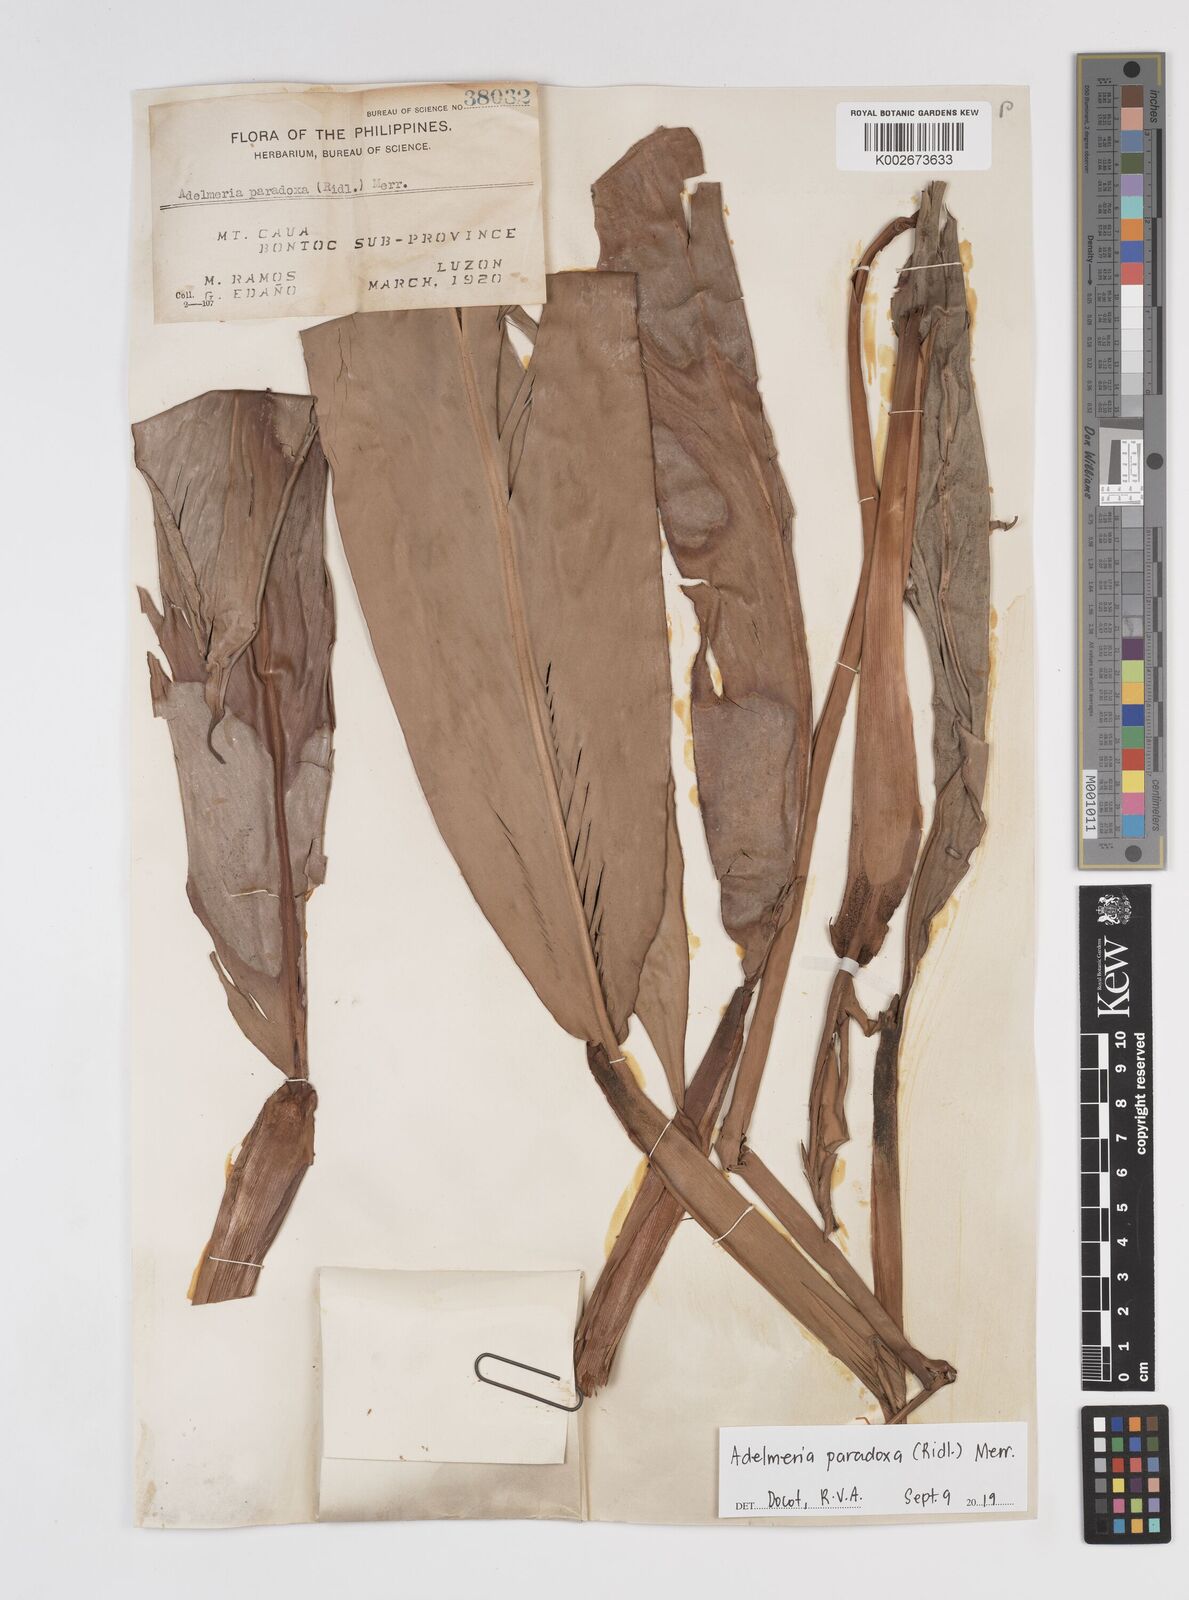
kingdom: Plantae
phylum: Tracheophyta
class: Liliopsida
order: Zingiberales
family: Zingiberaceae
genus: Adelmeria
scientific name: Adelmeria paradoxa
